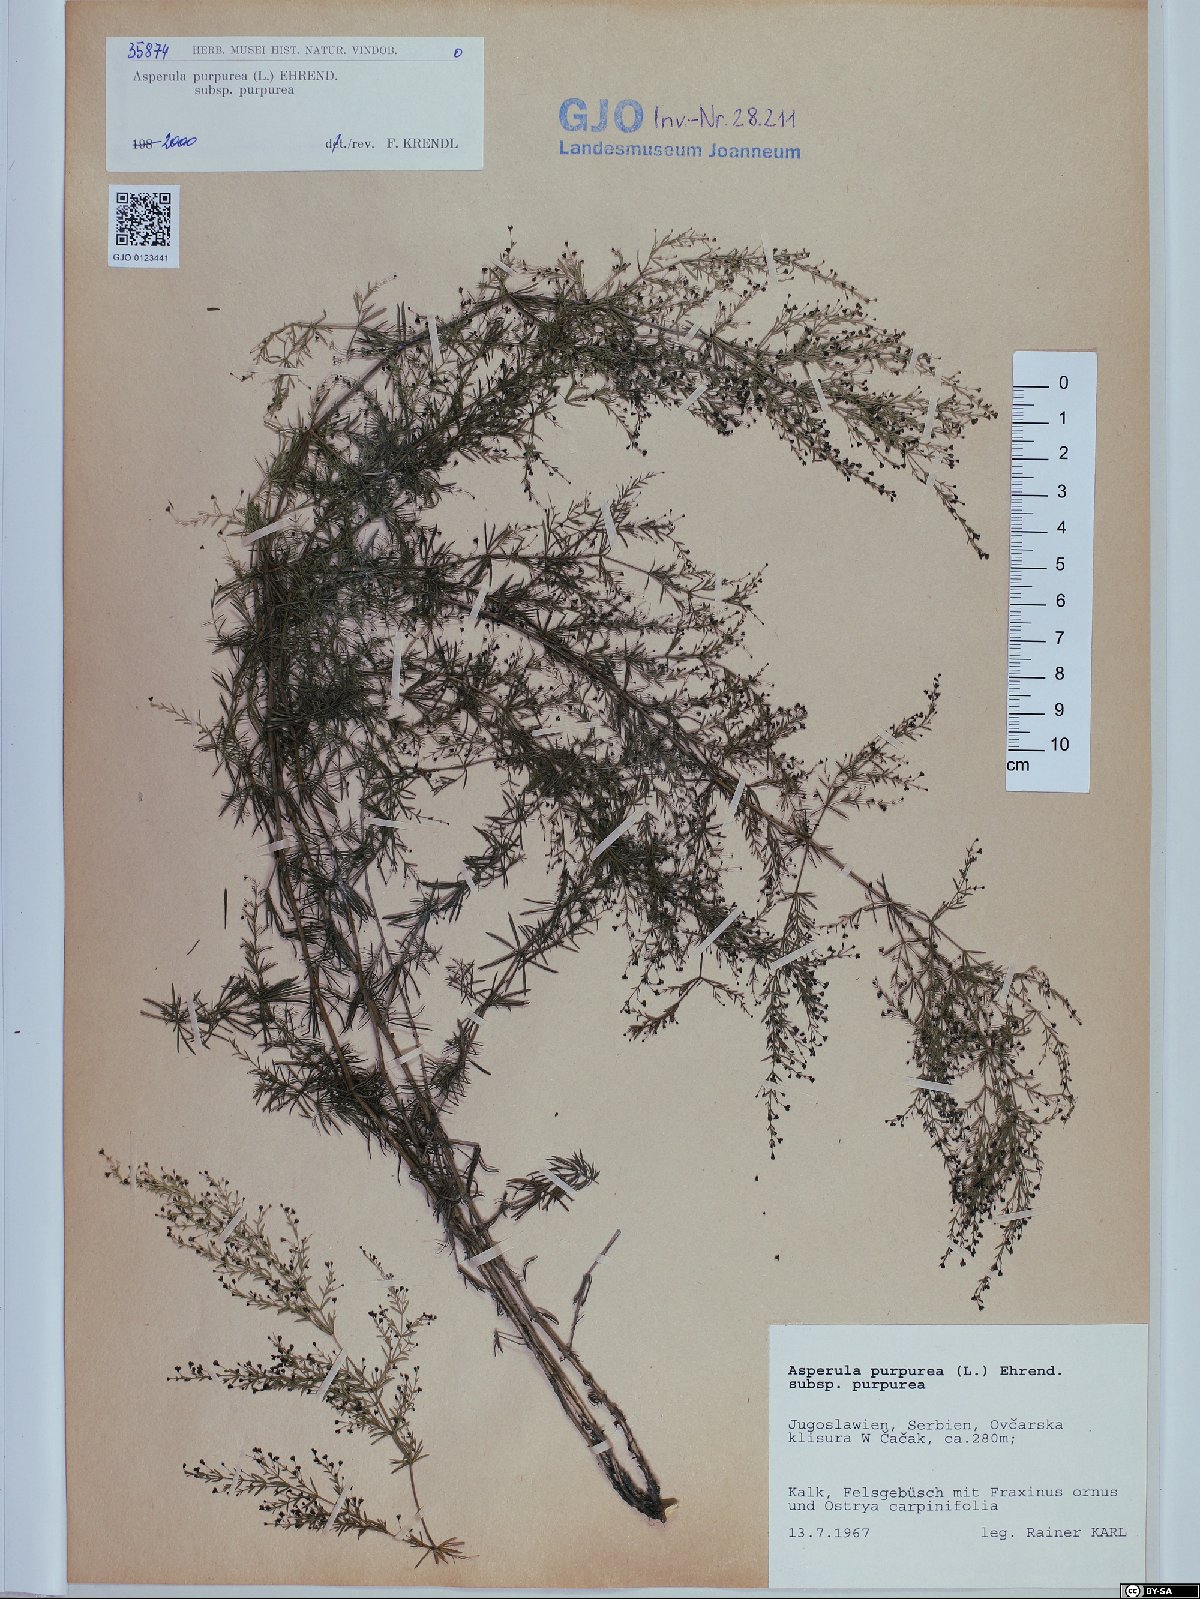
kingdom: Plantae
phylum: Tracheophyta
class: Magnoliopsida
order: Gentianales
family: Rubiaceae
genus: Thliphthisa
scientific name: Thliphthisa purpurea
